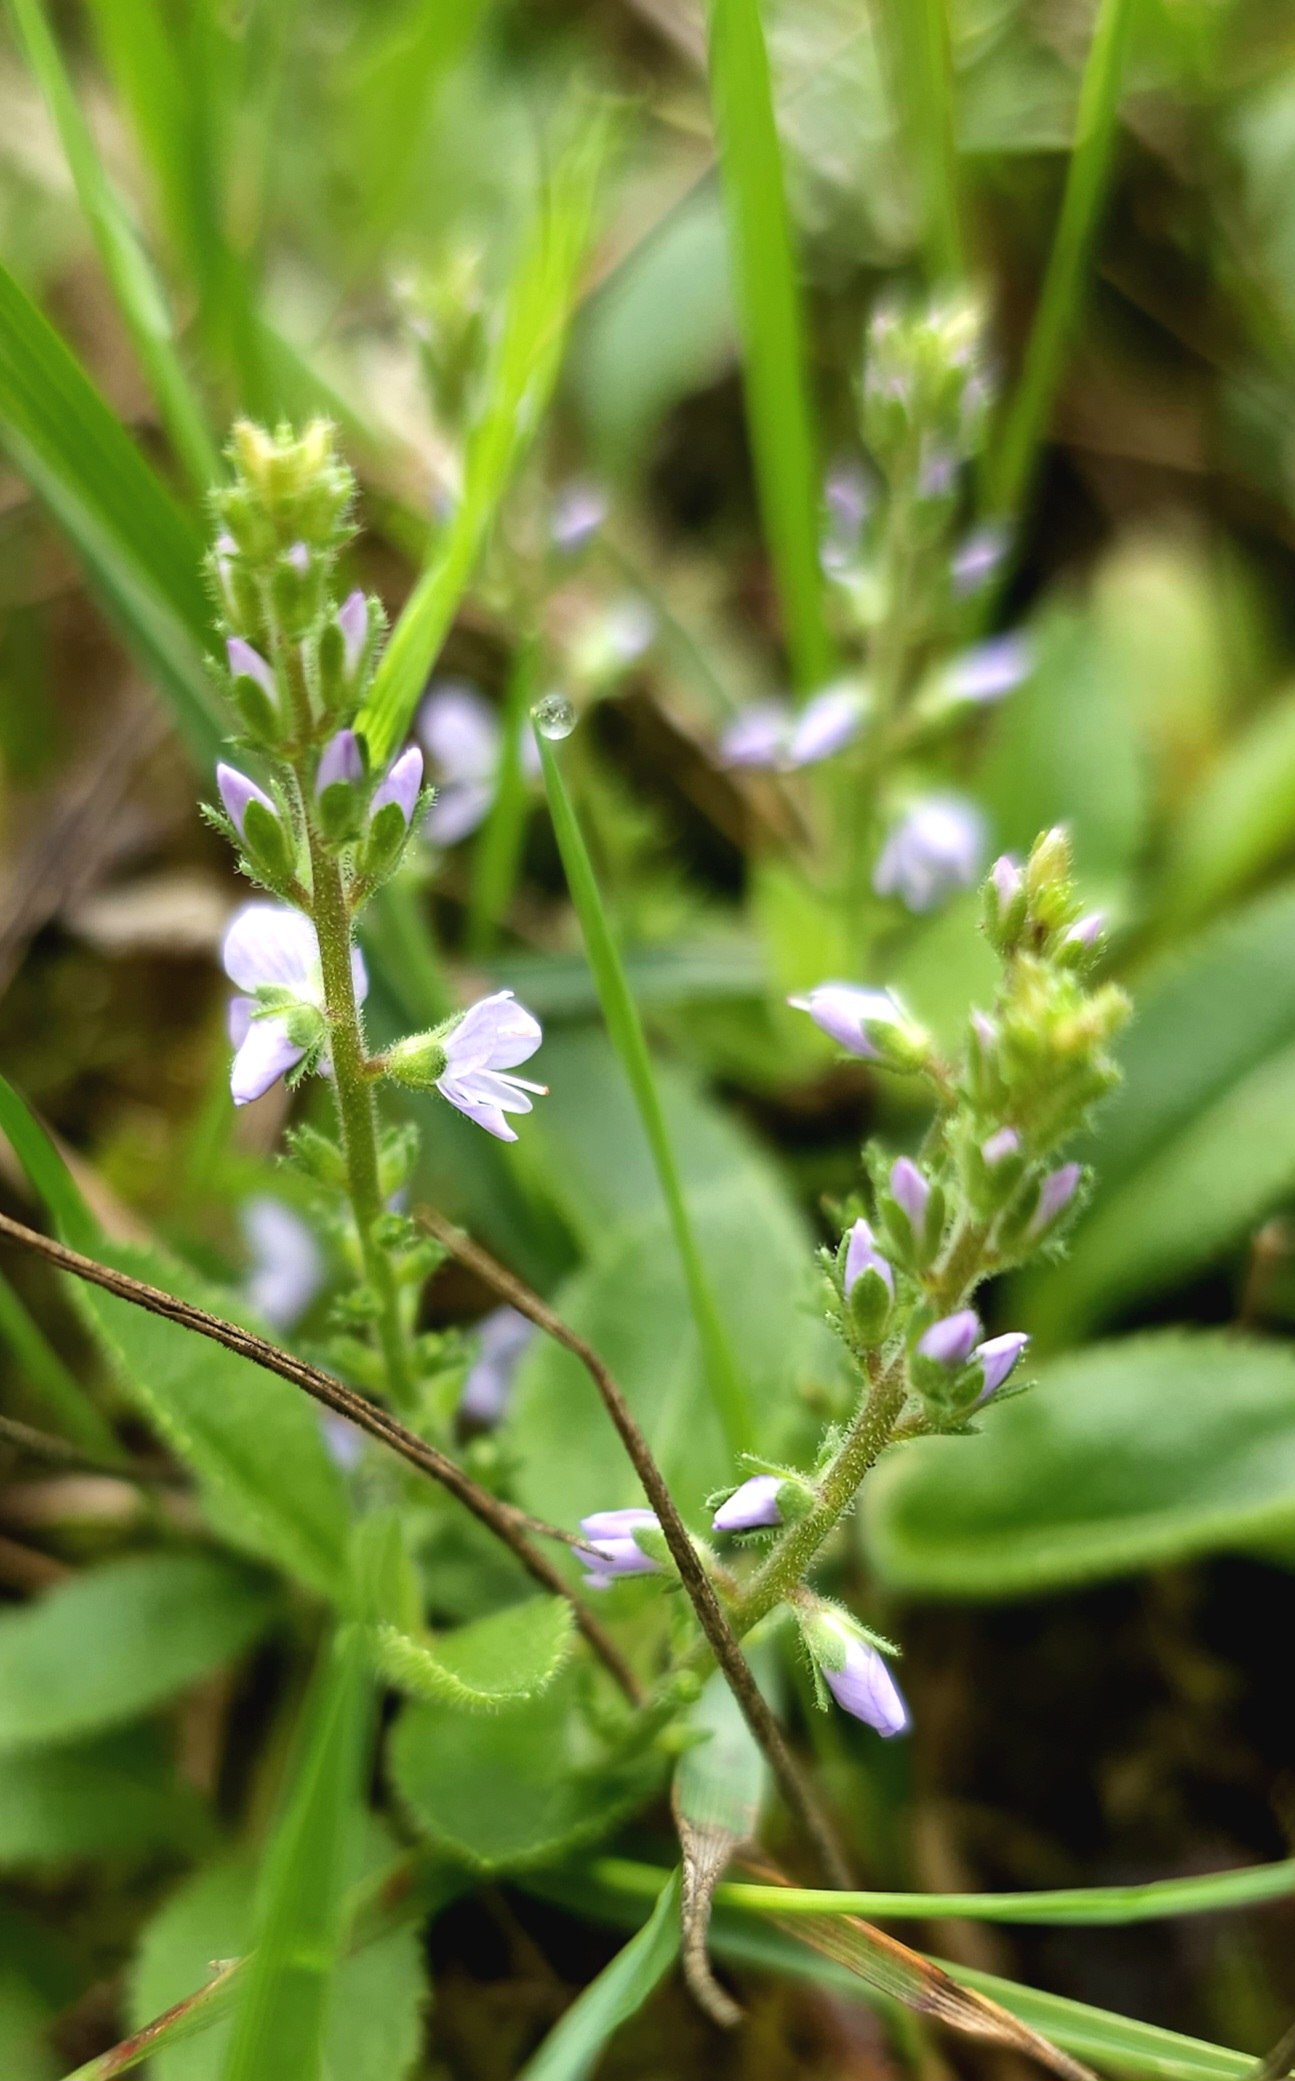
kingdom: Plantae
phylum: Tracheophyta
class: Magnoliopsida
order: Lamiales
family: Plantaginaceae
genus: Veronica
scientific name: Veronica officinalis
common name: Læge-ærenpris
